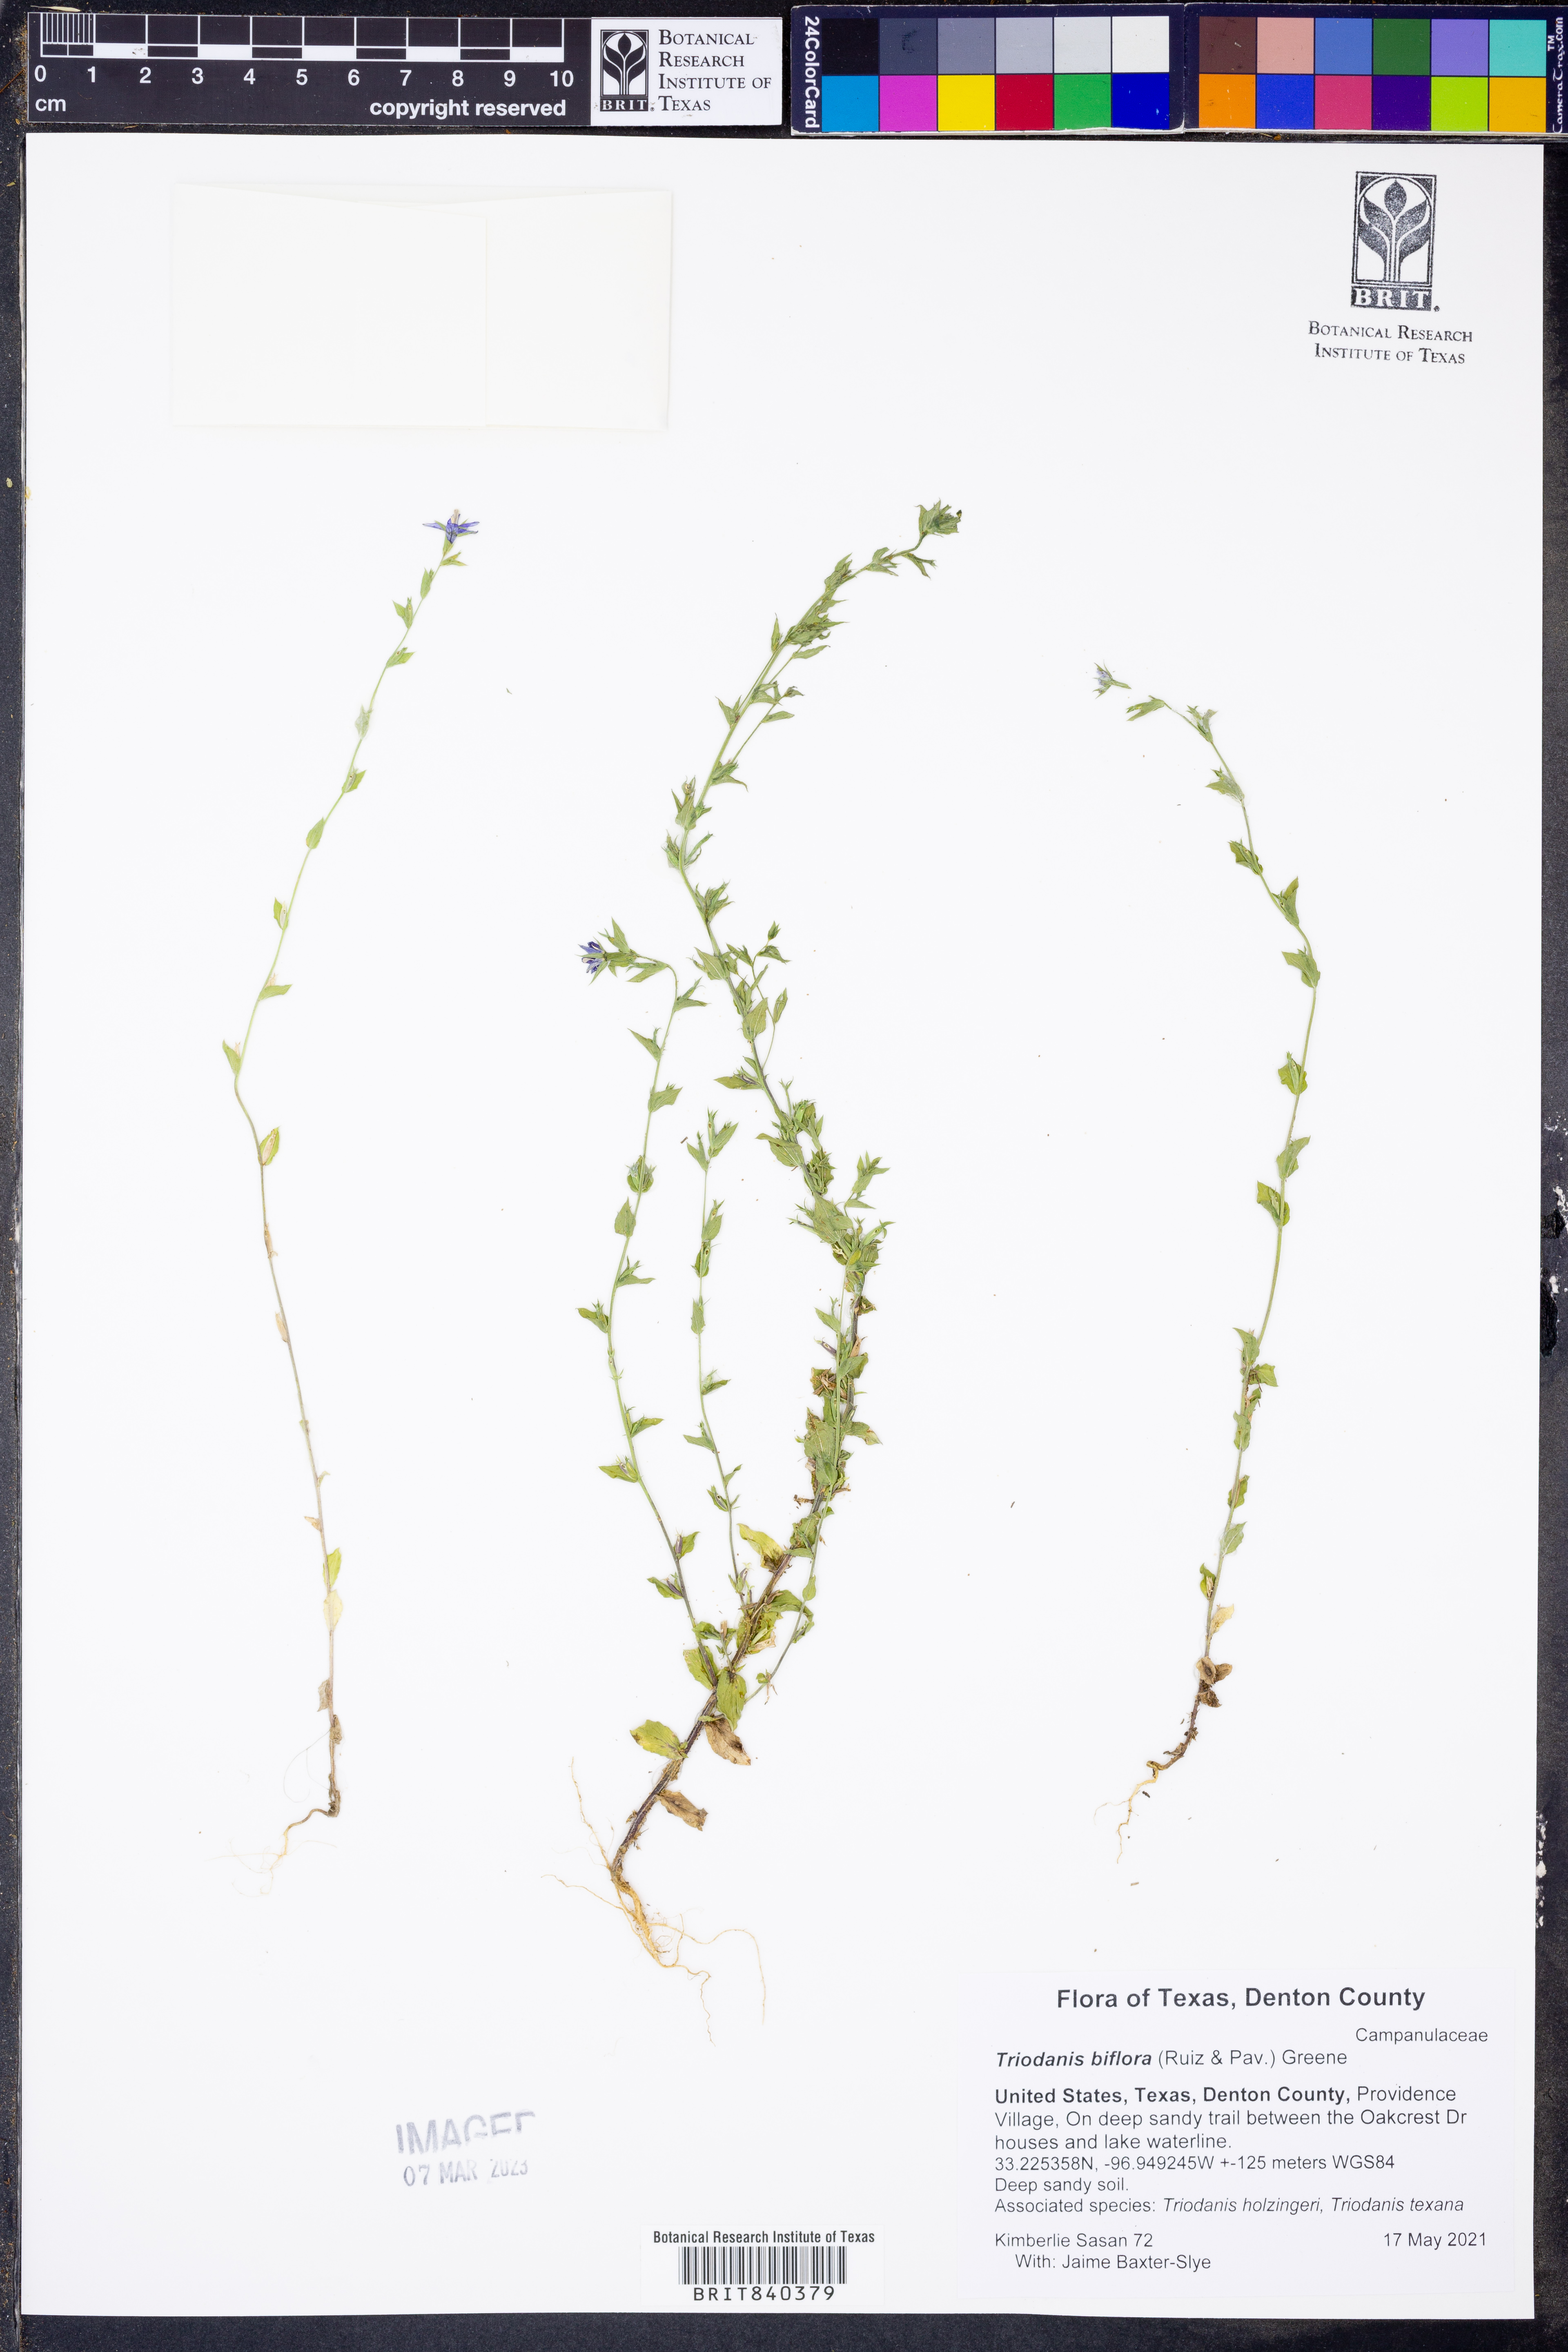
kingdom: Plantae
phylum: Tracheophyta
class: Magnoliopsida
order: Asterales
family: Campanulaceae
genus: Triodanis
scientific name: Triodanis perfoliata
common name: Clasping venus' looking-glass
